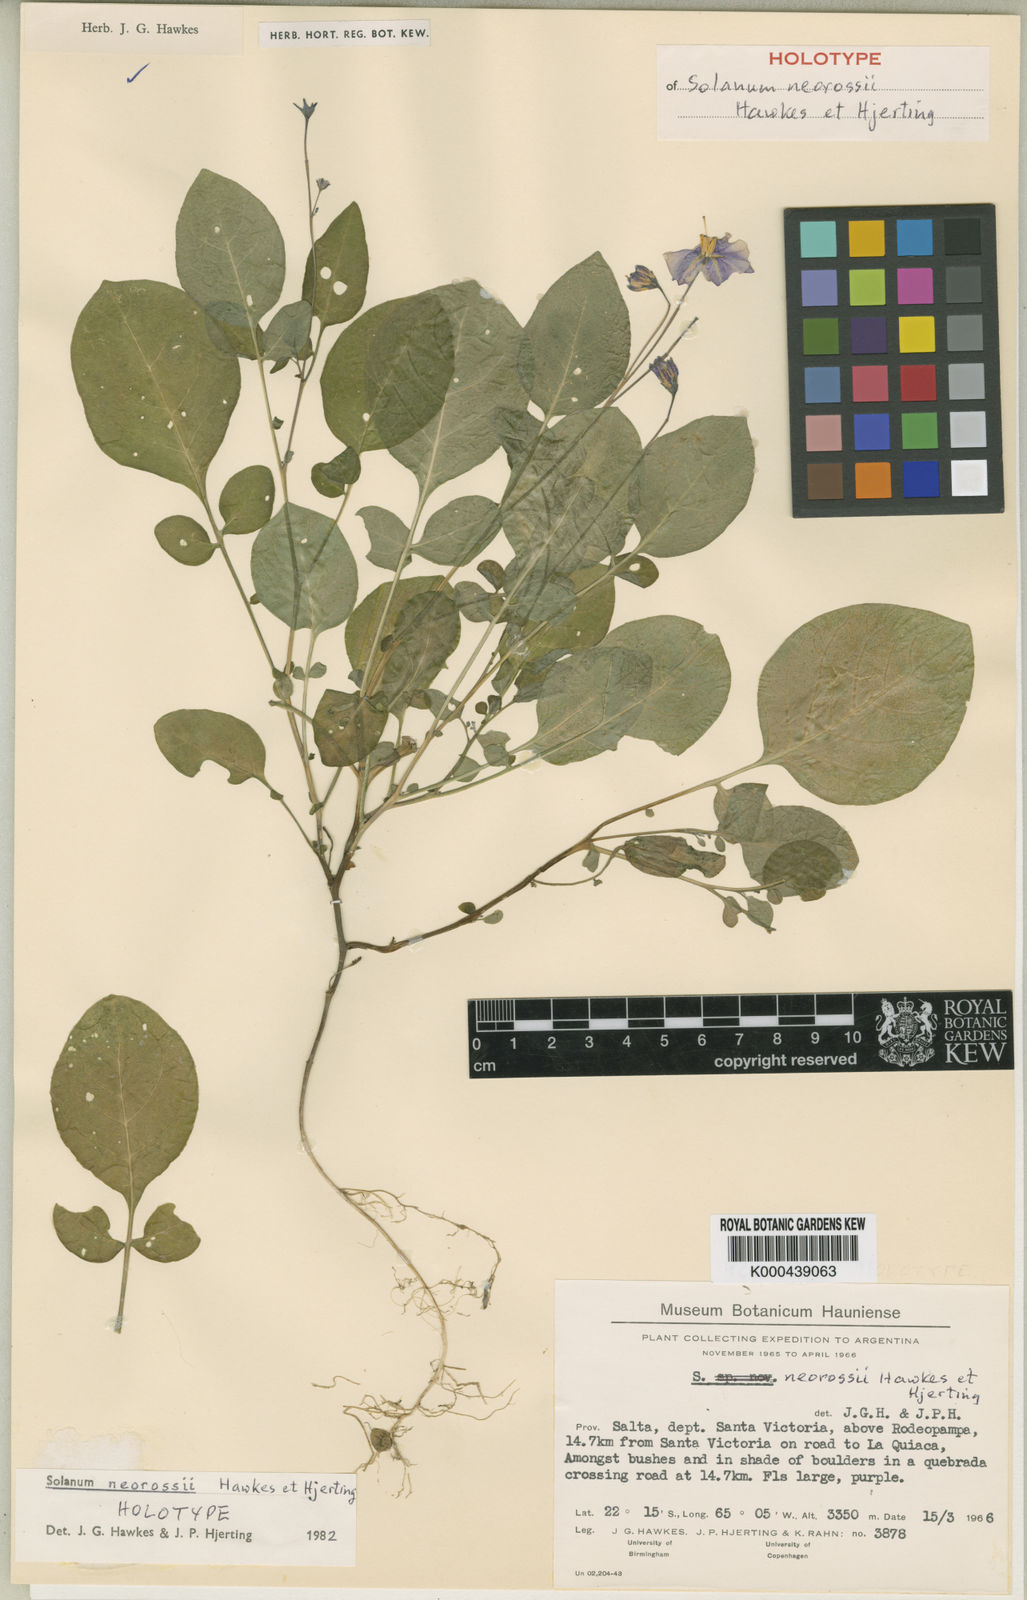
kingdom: Plantae
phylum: Tracheophyta
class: Magnoliopsida
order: Solanales
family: Solanaceae
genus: Solanum
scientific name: Solanum neorossii
